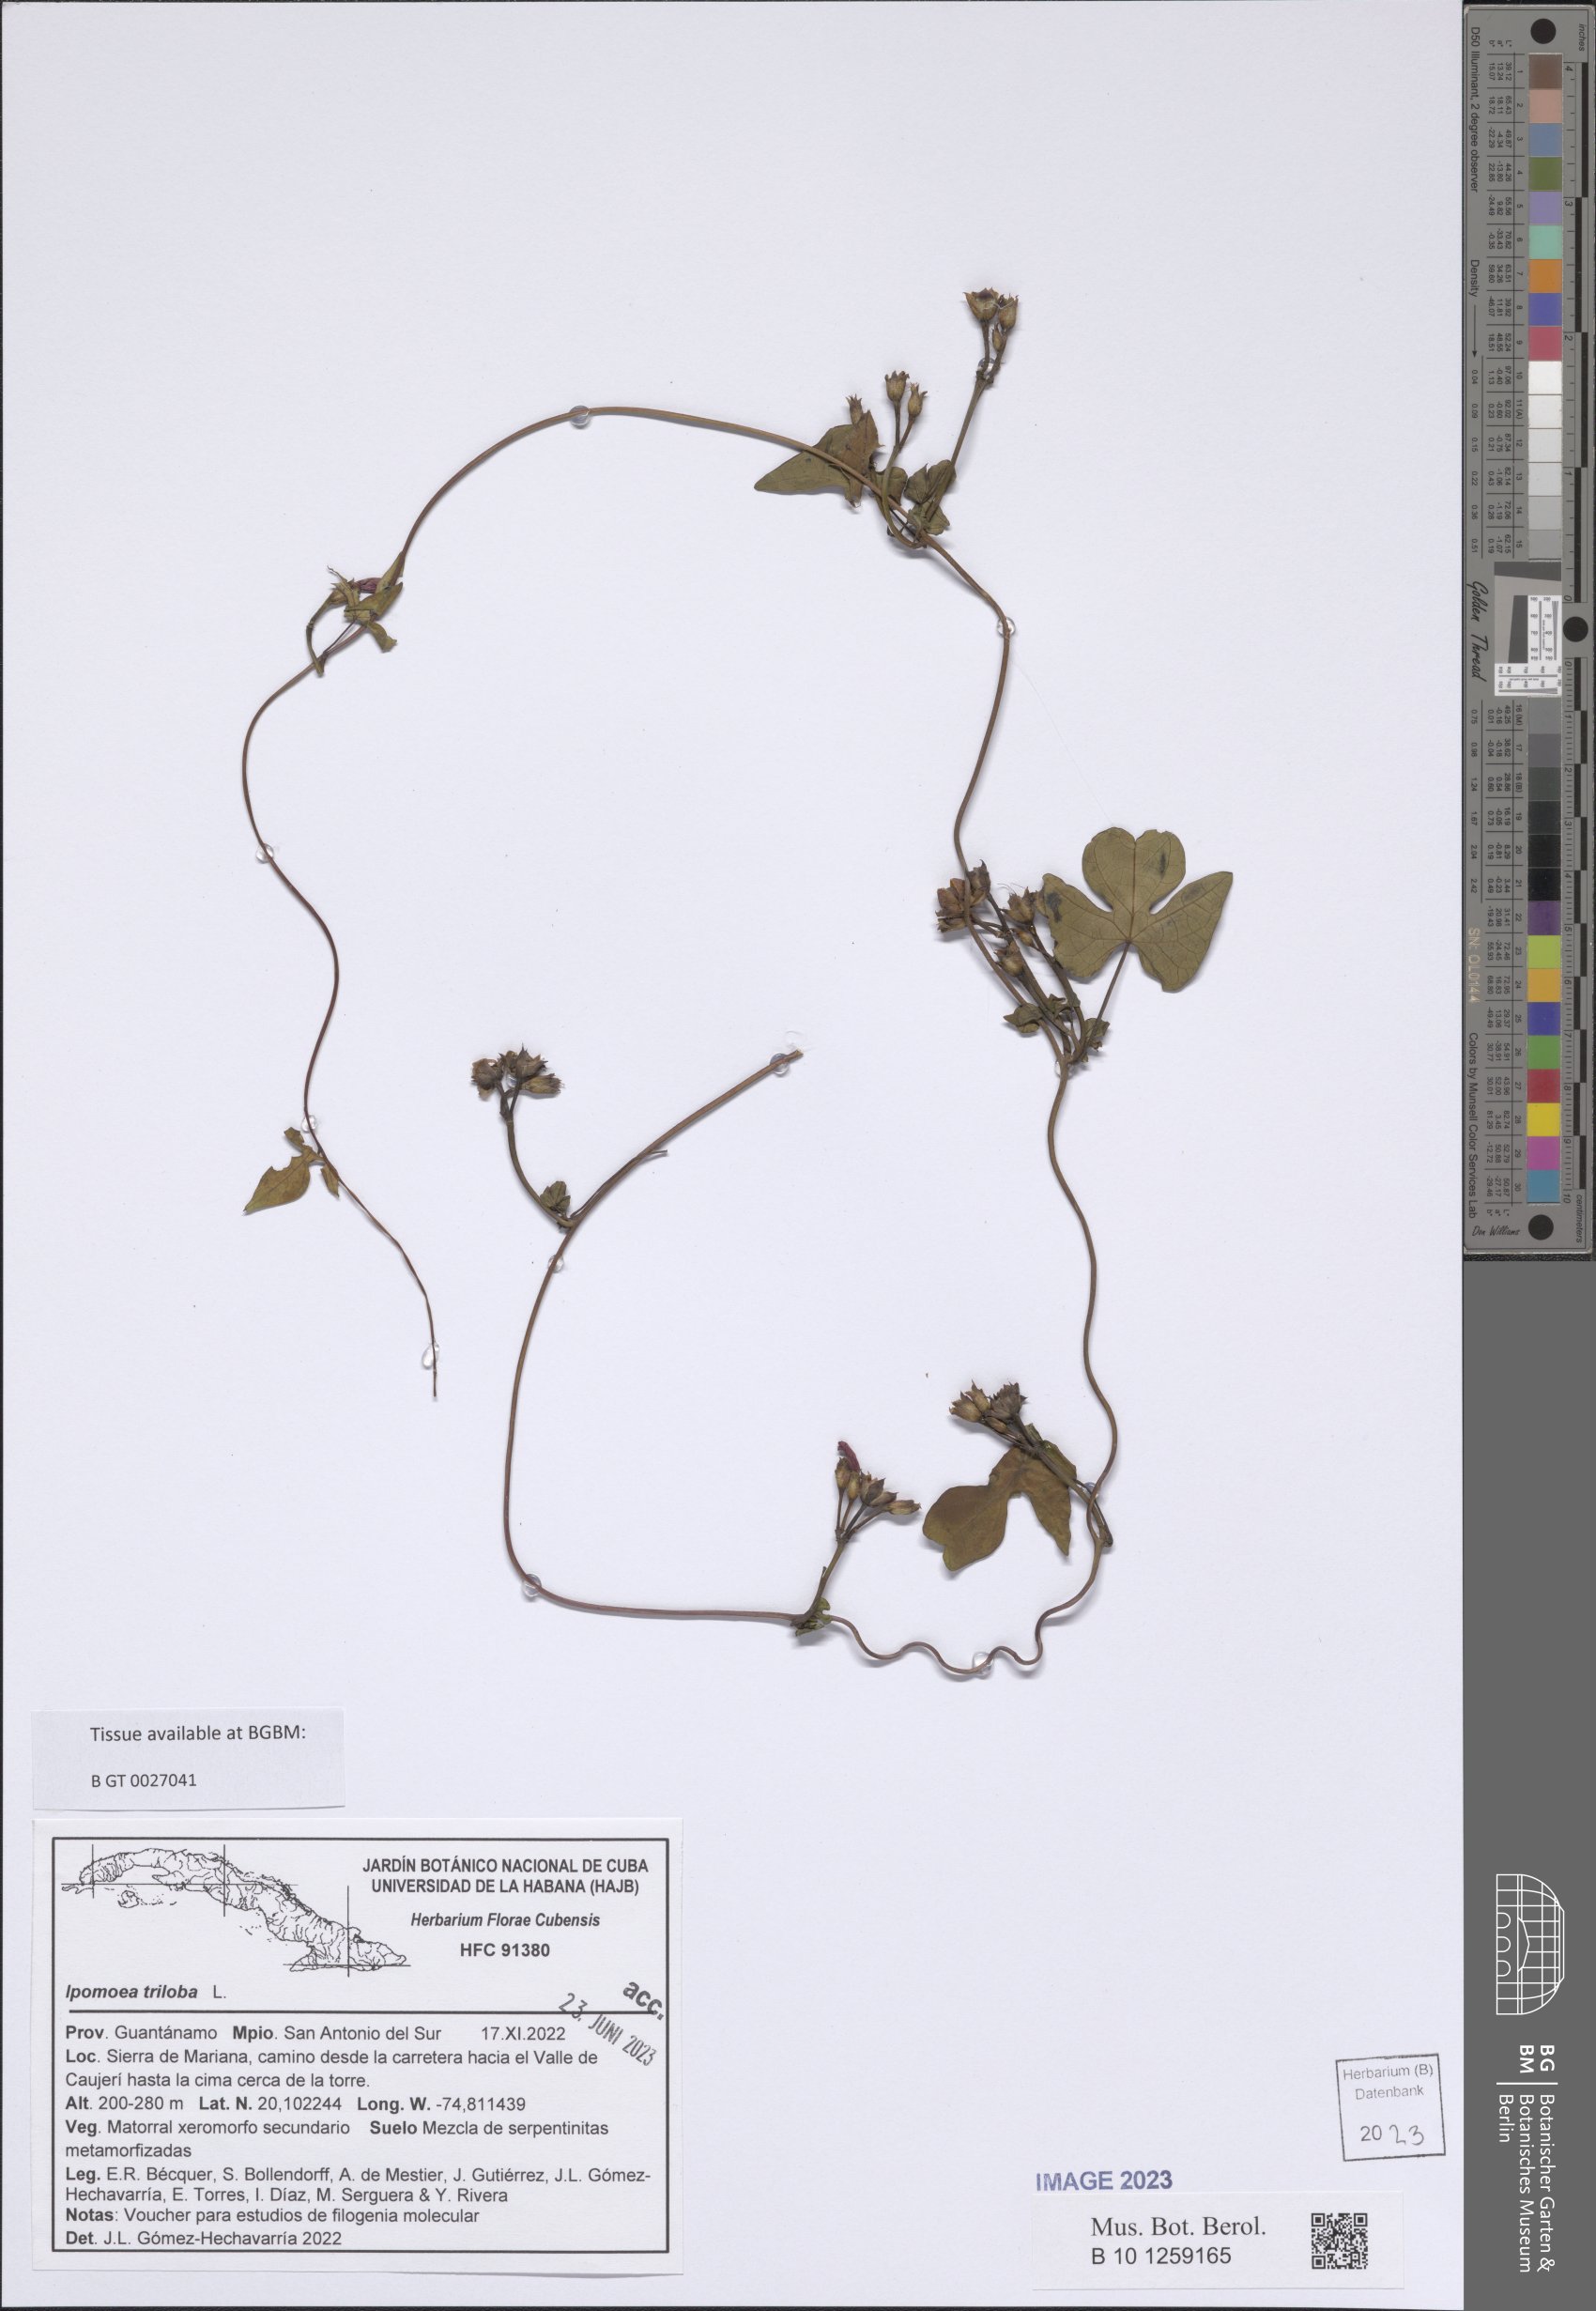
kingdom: Plantae
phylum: Tracheophyta
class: Magnoliopsida
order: Solanales
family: Convolvulaceae
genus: Ipomoea
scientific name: Ipomoea triloba
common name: Little-bell
